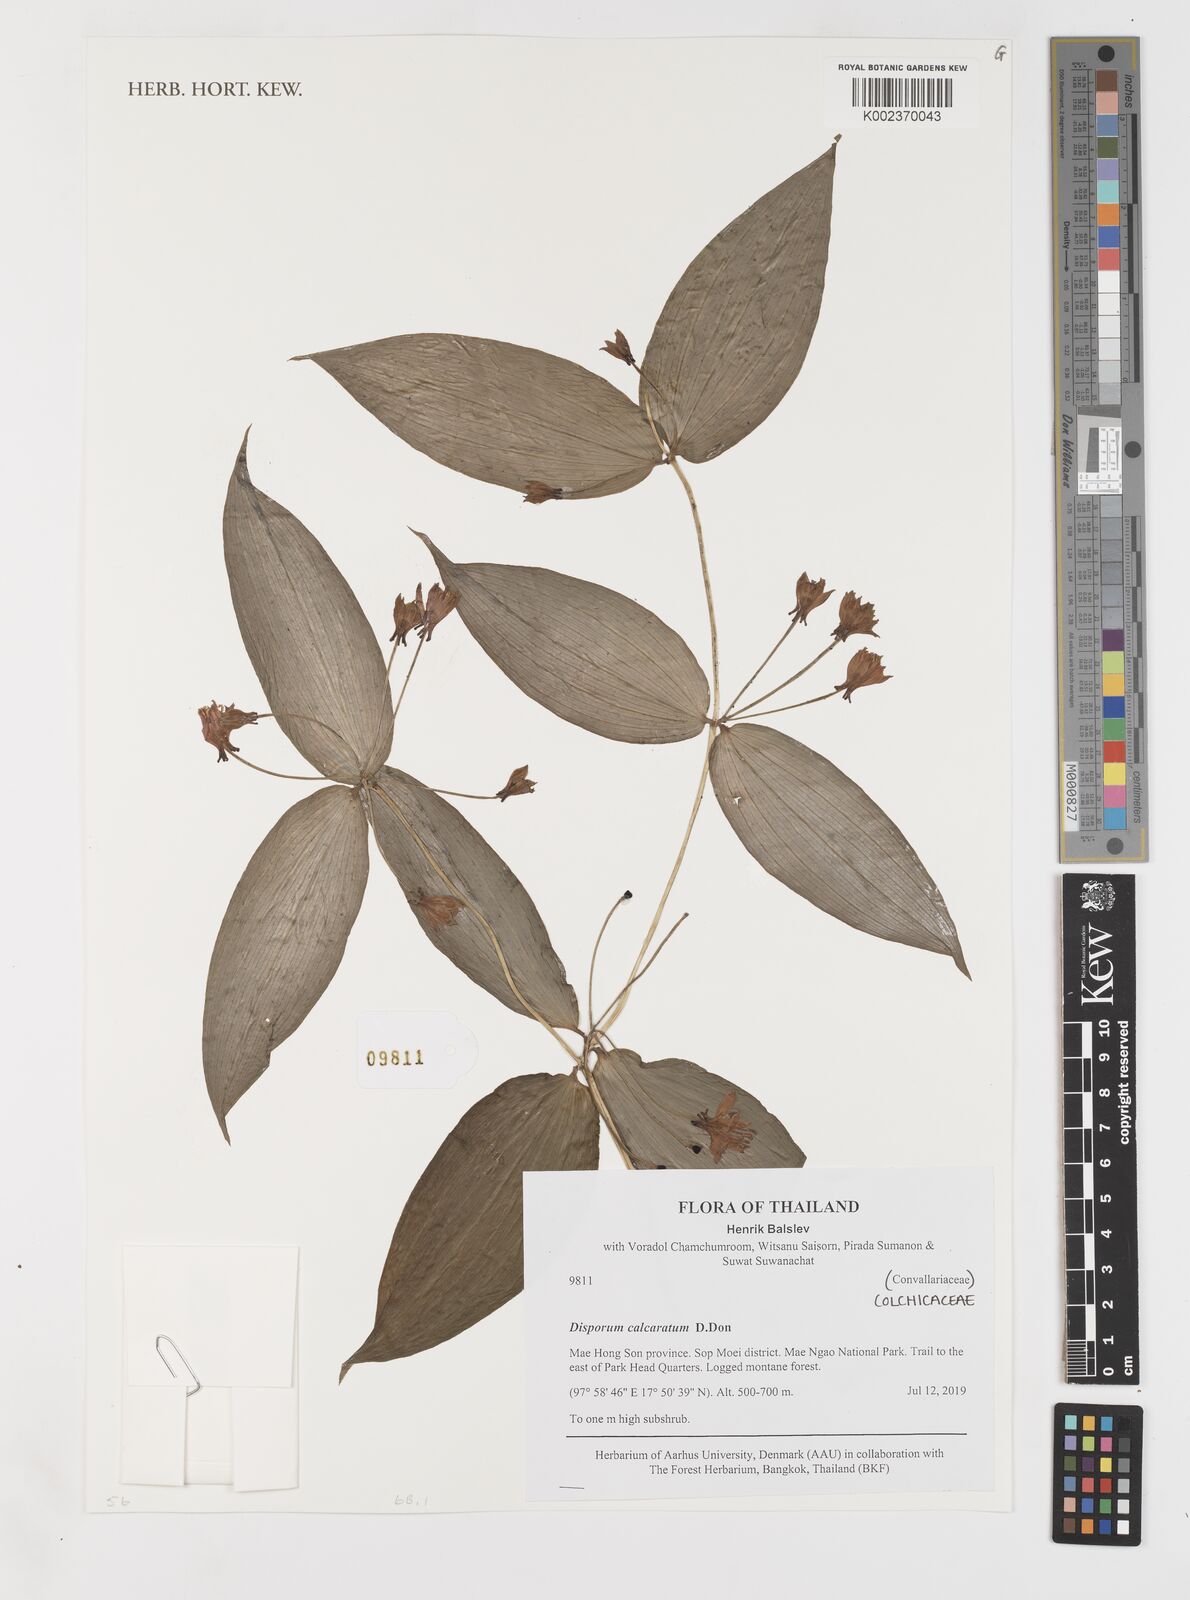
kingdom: Plantae
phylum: Tracheophyta
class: Liliopsida
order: Liliales
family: Colchicaceae
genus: Disporum
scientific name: Disporum calcaratum
